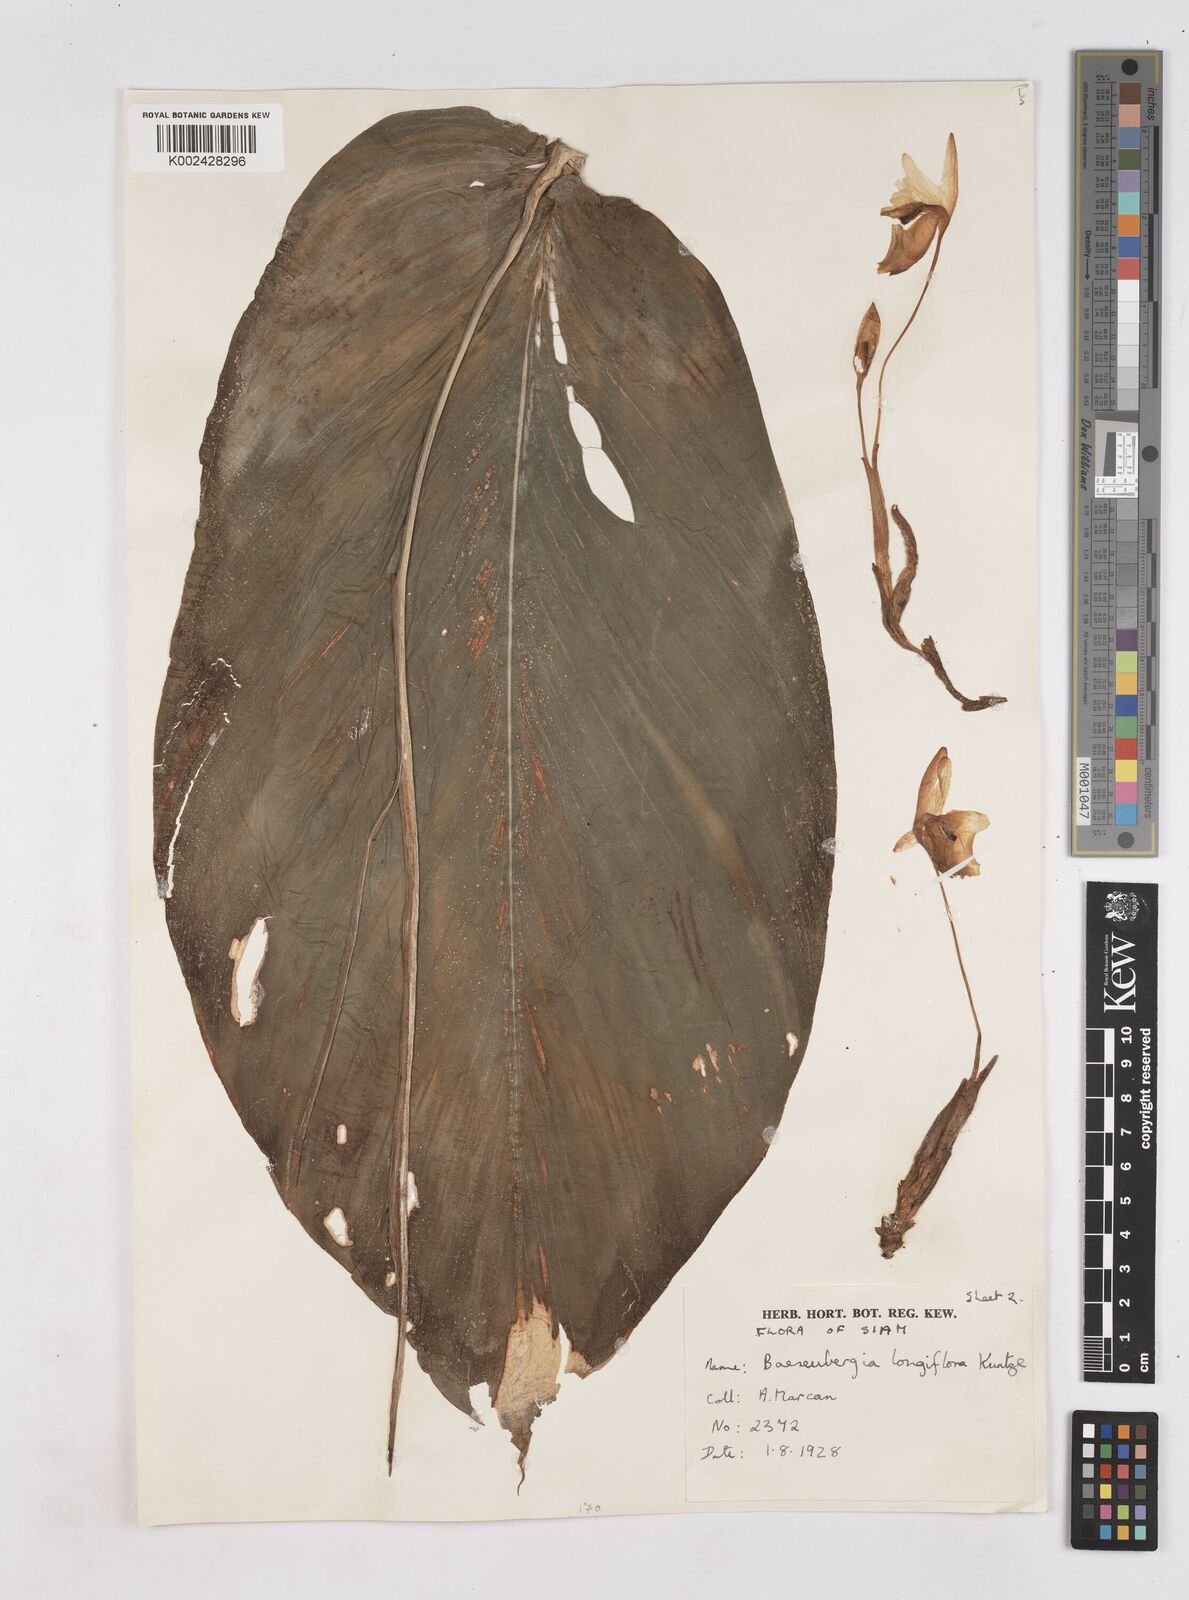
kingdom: Plantae
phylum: Tracheophyta
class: Liliopsida
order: Zingiberales
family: Zingiberaceae
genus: Boesenbergia
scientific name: Boesenbergia longiflora
